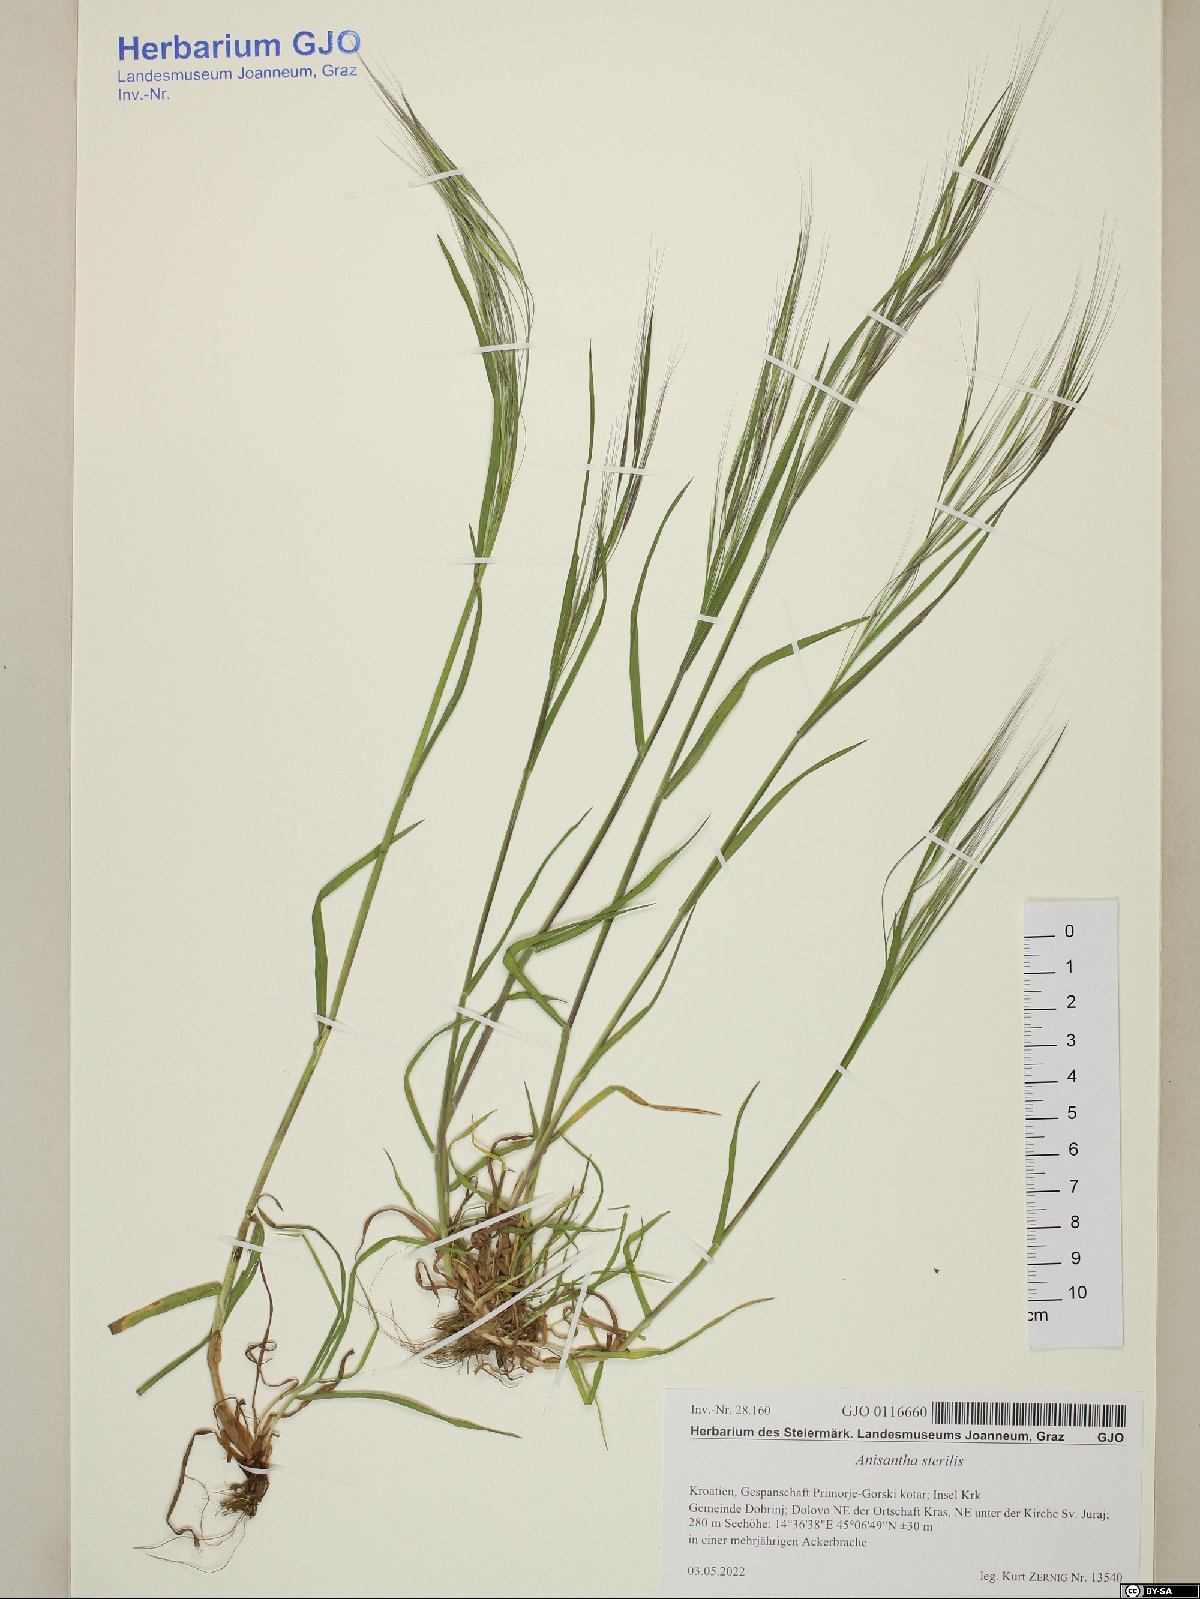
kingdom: Plantae
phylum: Tracheophyta
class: Liliopsida
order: Poales
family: Poaceae
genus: Anthoxanthum
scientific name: Anthoxanthum odoratum
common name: Sweet vernalgrass
